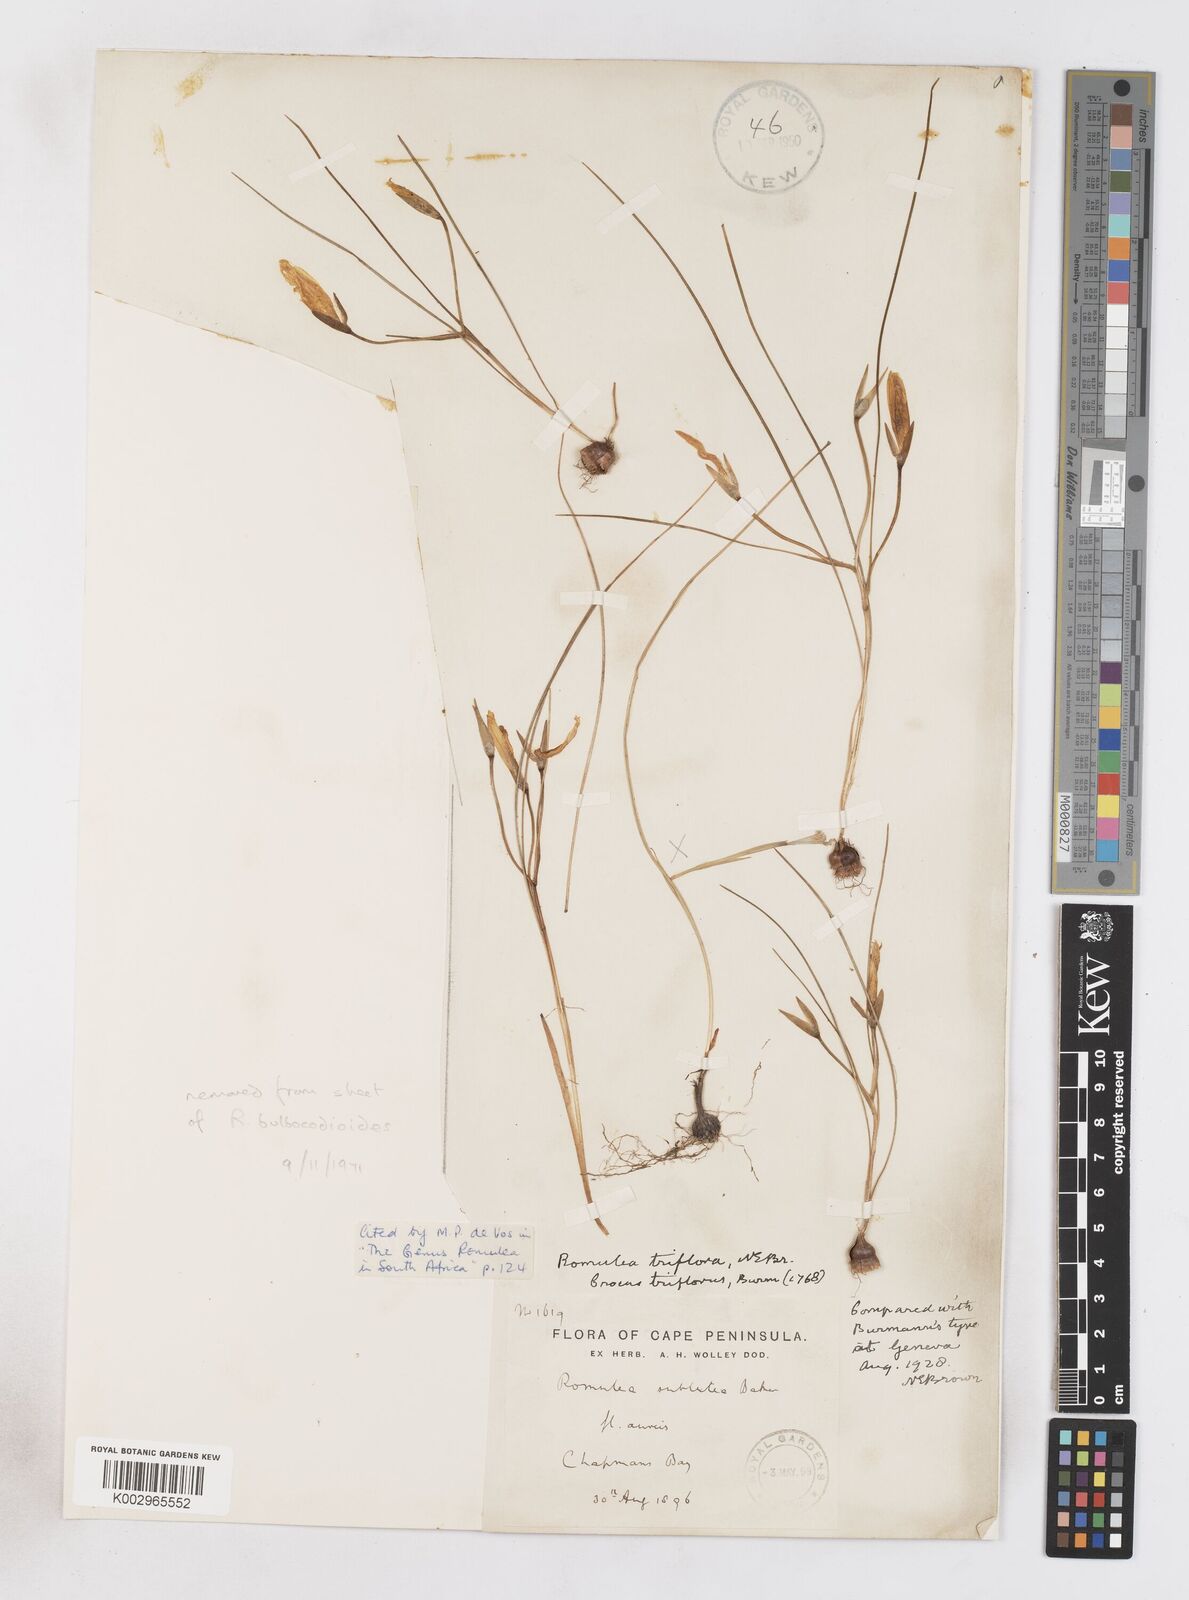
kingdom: Plantae
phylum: Tracheophyta
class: Liliopsida
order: Asparagales
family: Iridaceae
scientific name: Iridaceae
